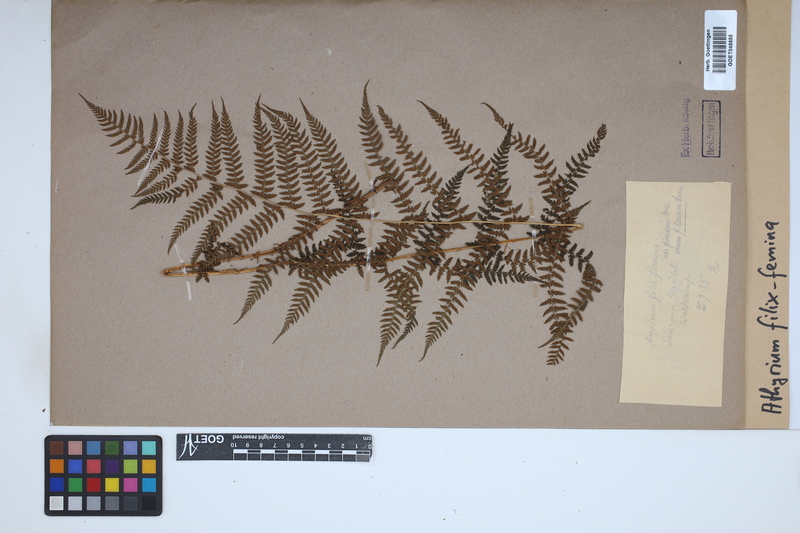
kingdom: Plantae
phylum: Tracheophyta
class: Polypodiopsida
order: Polypodiales
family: Athyriaceae
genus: Athyrium
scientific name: Athyrium filix-femina
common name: Lady fern
